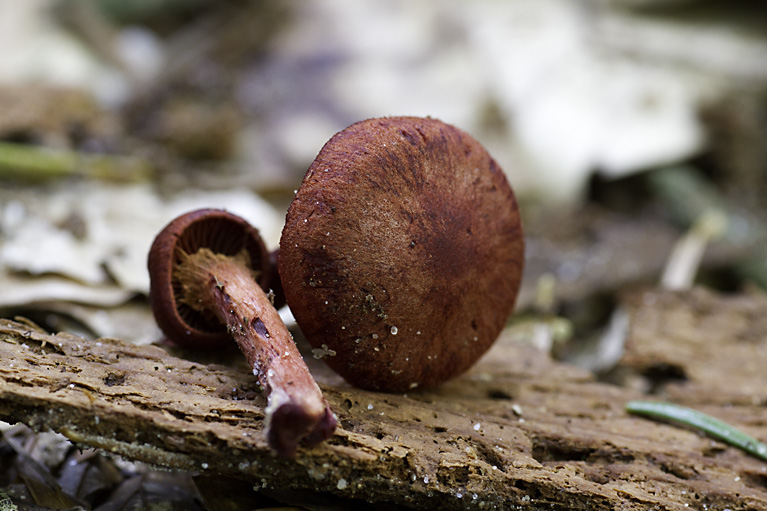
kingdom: Fungi
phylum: Basidiomycota
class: Agaricomycetes
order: Agaricales
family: Cortinariaceae
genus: Cortinarius
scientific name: Cortinarius sanguineus
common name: blodrød slørhat
